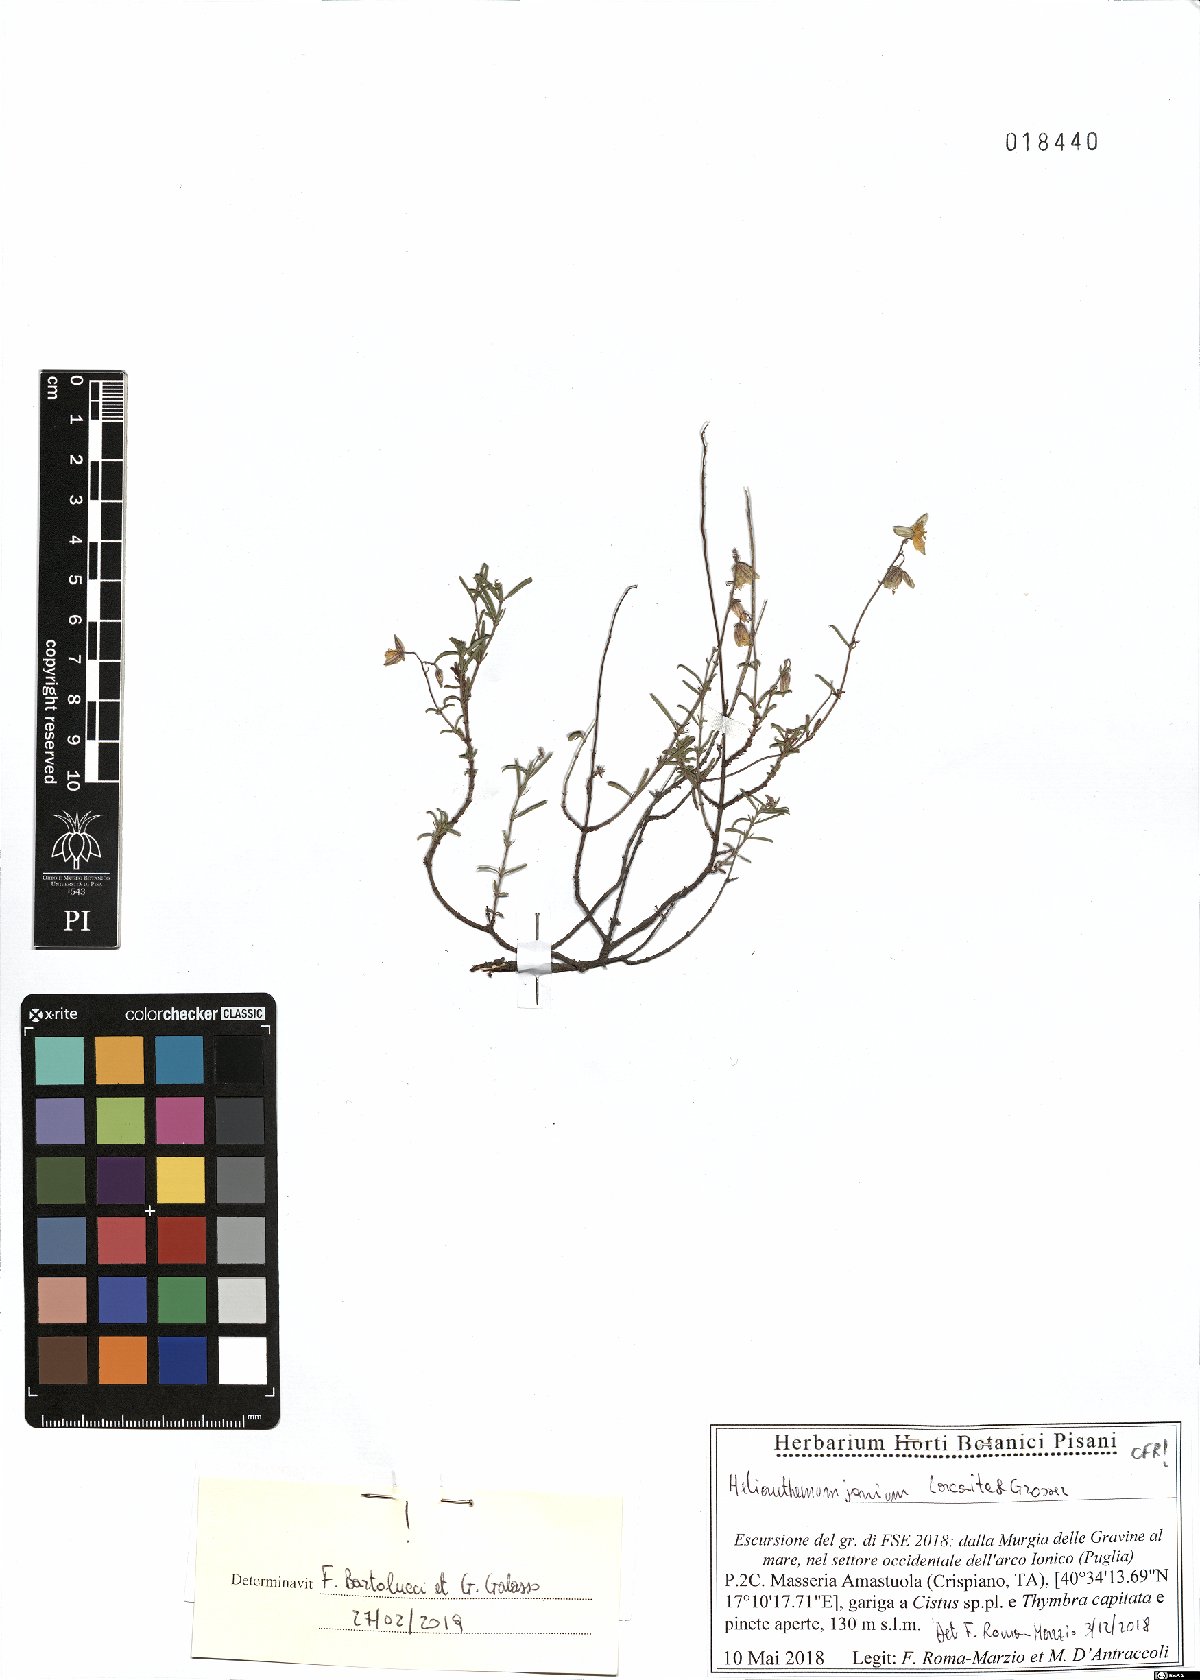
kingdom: Plantae
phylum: Tracheophyta
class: Magnoliopsida
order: Malvales
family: Cistaceae
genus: Helianthemum
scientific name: Helianthemum leptophyllum
